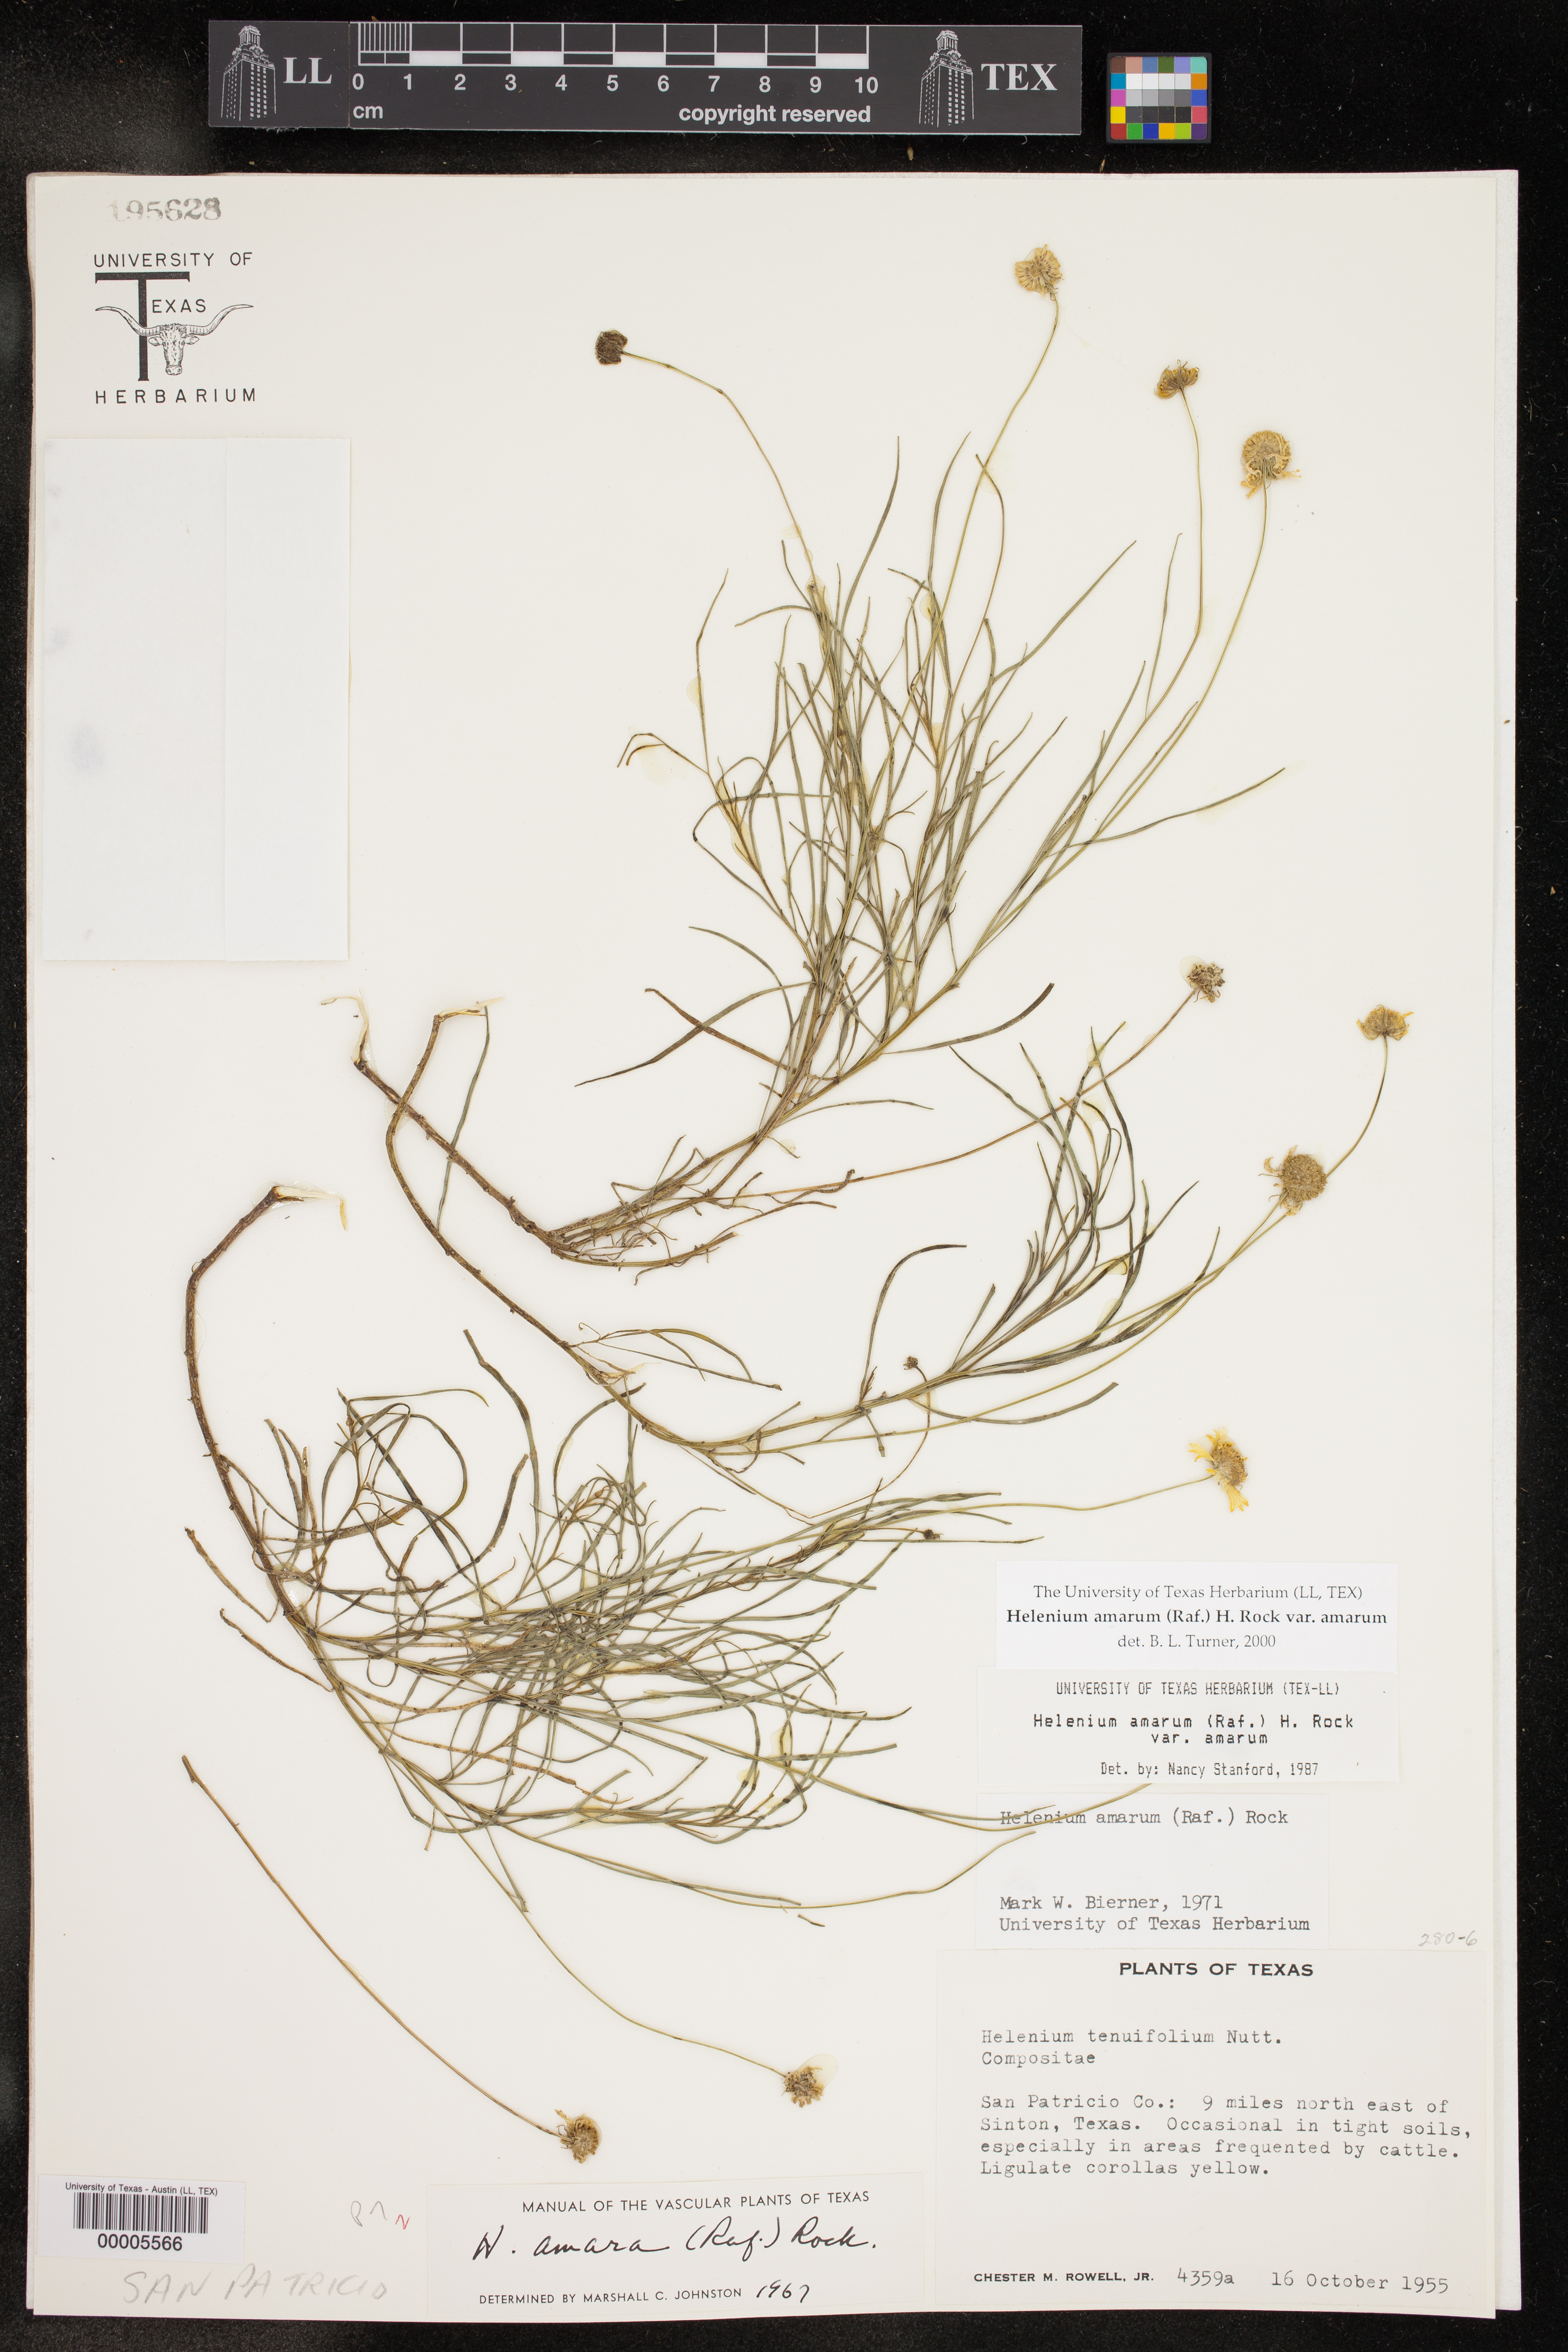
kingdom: Plantae
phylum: Tracheophyta
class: Magnoliopsida
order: Asterales
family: Asteraceae
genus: Helenium
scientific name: Helenium amarum
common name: Bitter sneezeweed
